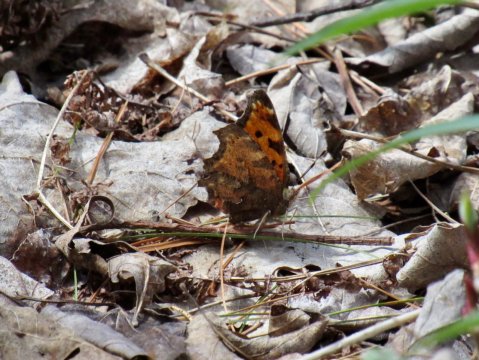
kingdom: Animalia
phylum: Arthropoda
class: Insecta
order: Lepidoptera
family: Nymphalidae
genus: Polygonia
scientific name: Polygonia comma
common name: Eastern Comma
